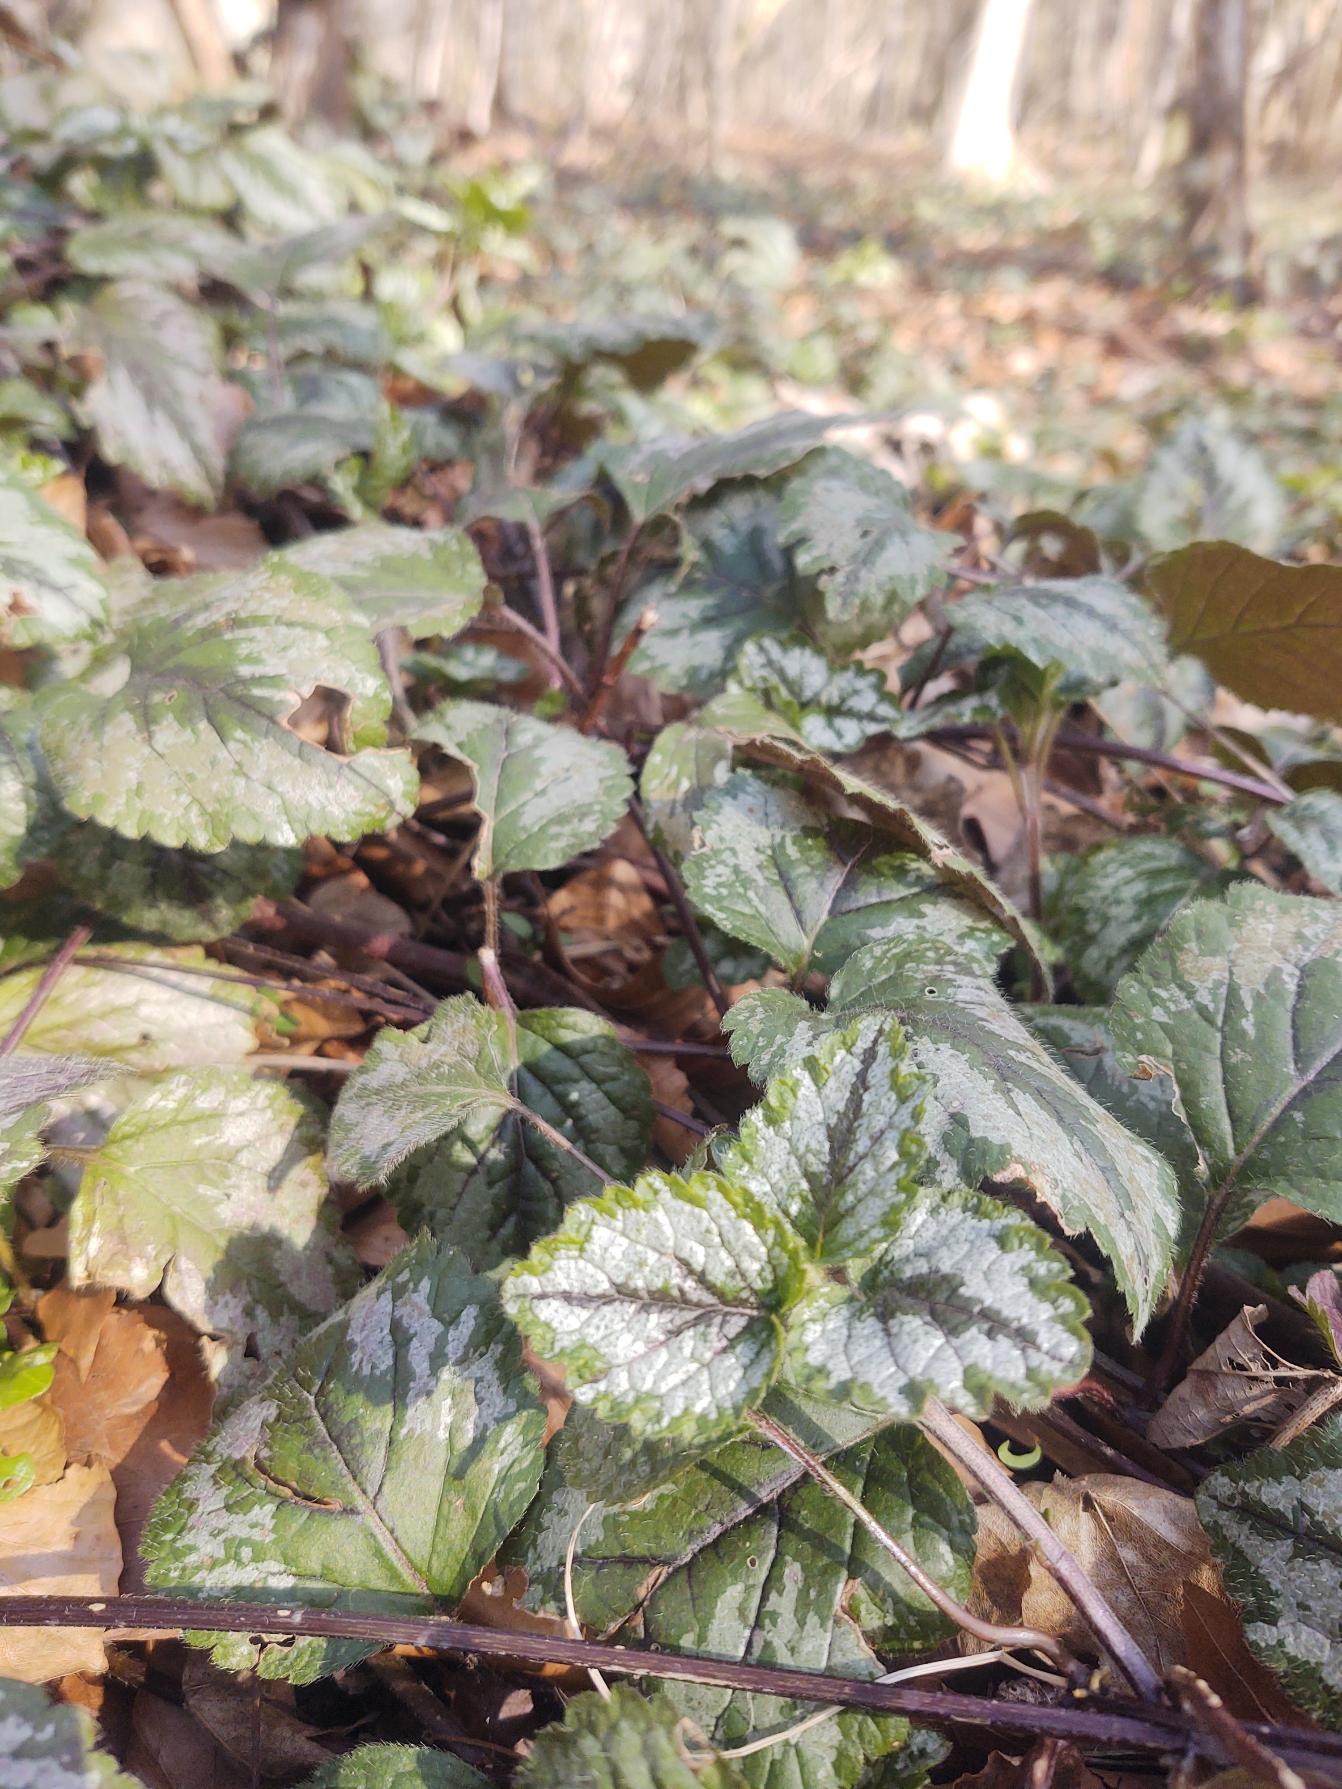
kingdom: Plantae
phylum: Tracheophyta
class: Magnoliopsida
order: Lamiales
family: Lamiaceae
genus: Lamium
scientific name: Lamium galeobdolon
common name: Have-guldnælde
